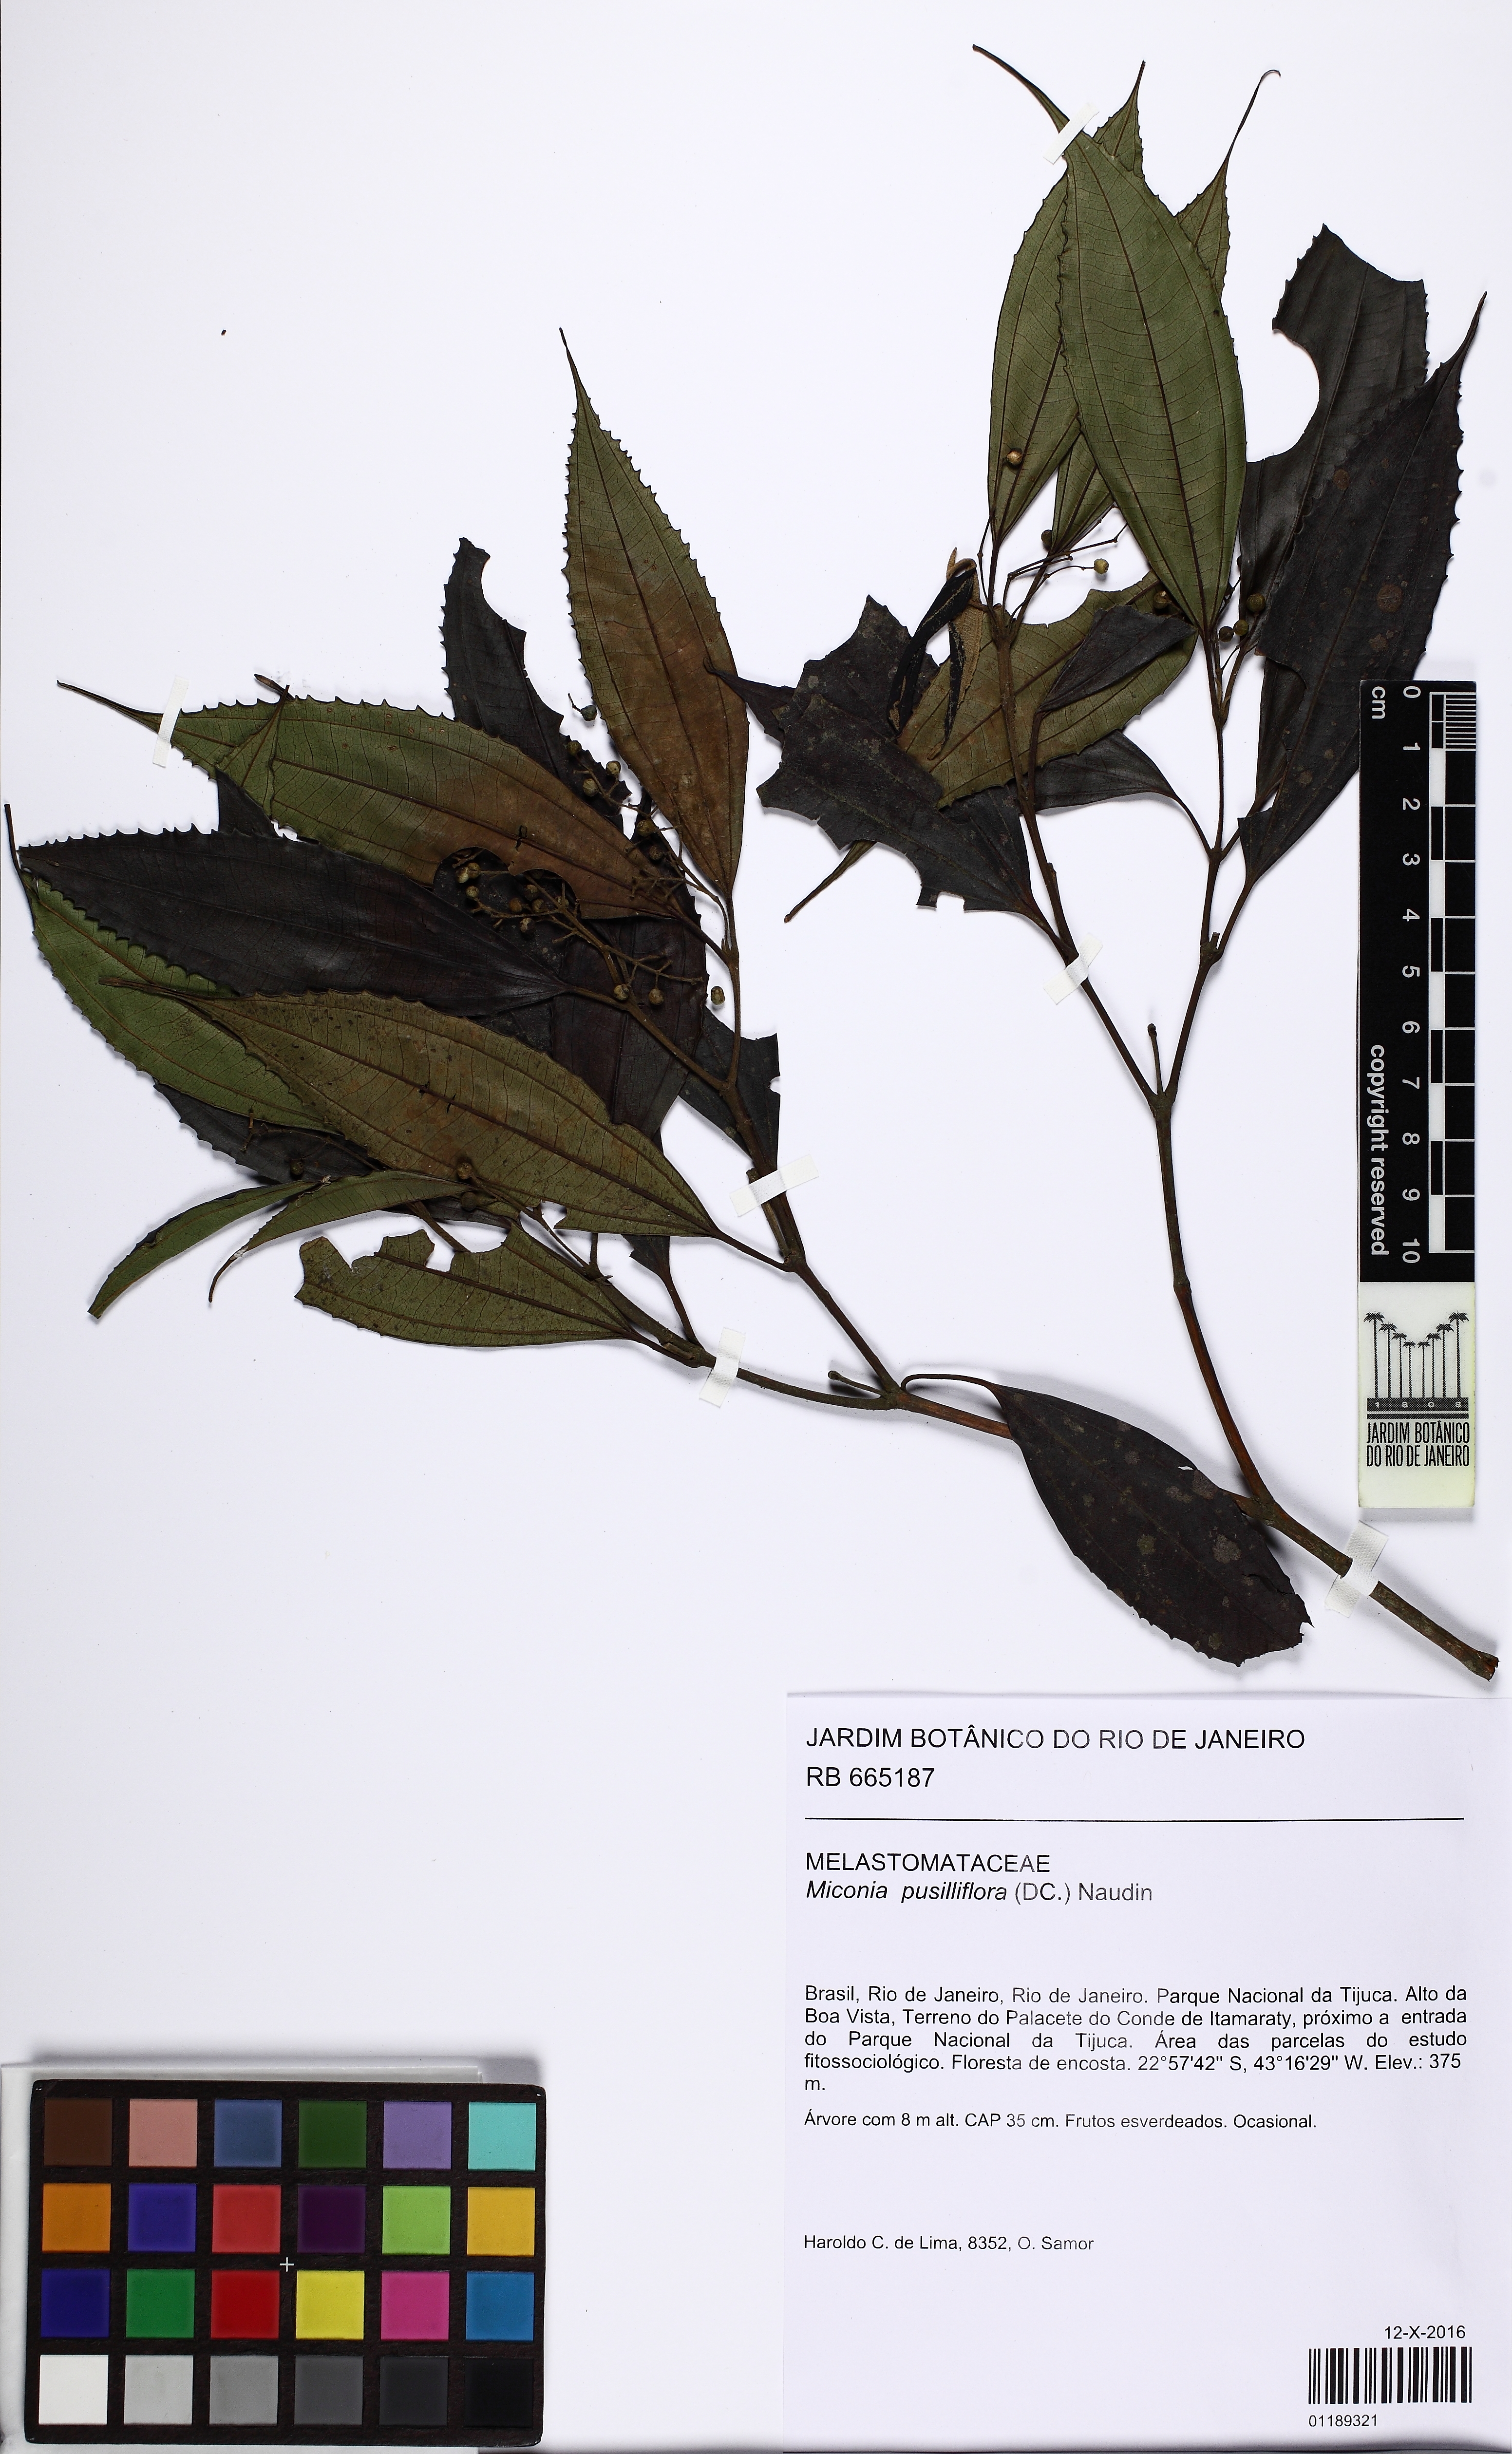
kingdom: Plantae
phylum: Tracheophyta
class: Magnoliopsida
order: Myrtales
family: Melastomataceae
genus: Miconia
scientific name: Miconia pusilliflora
